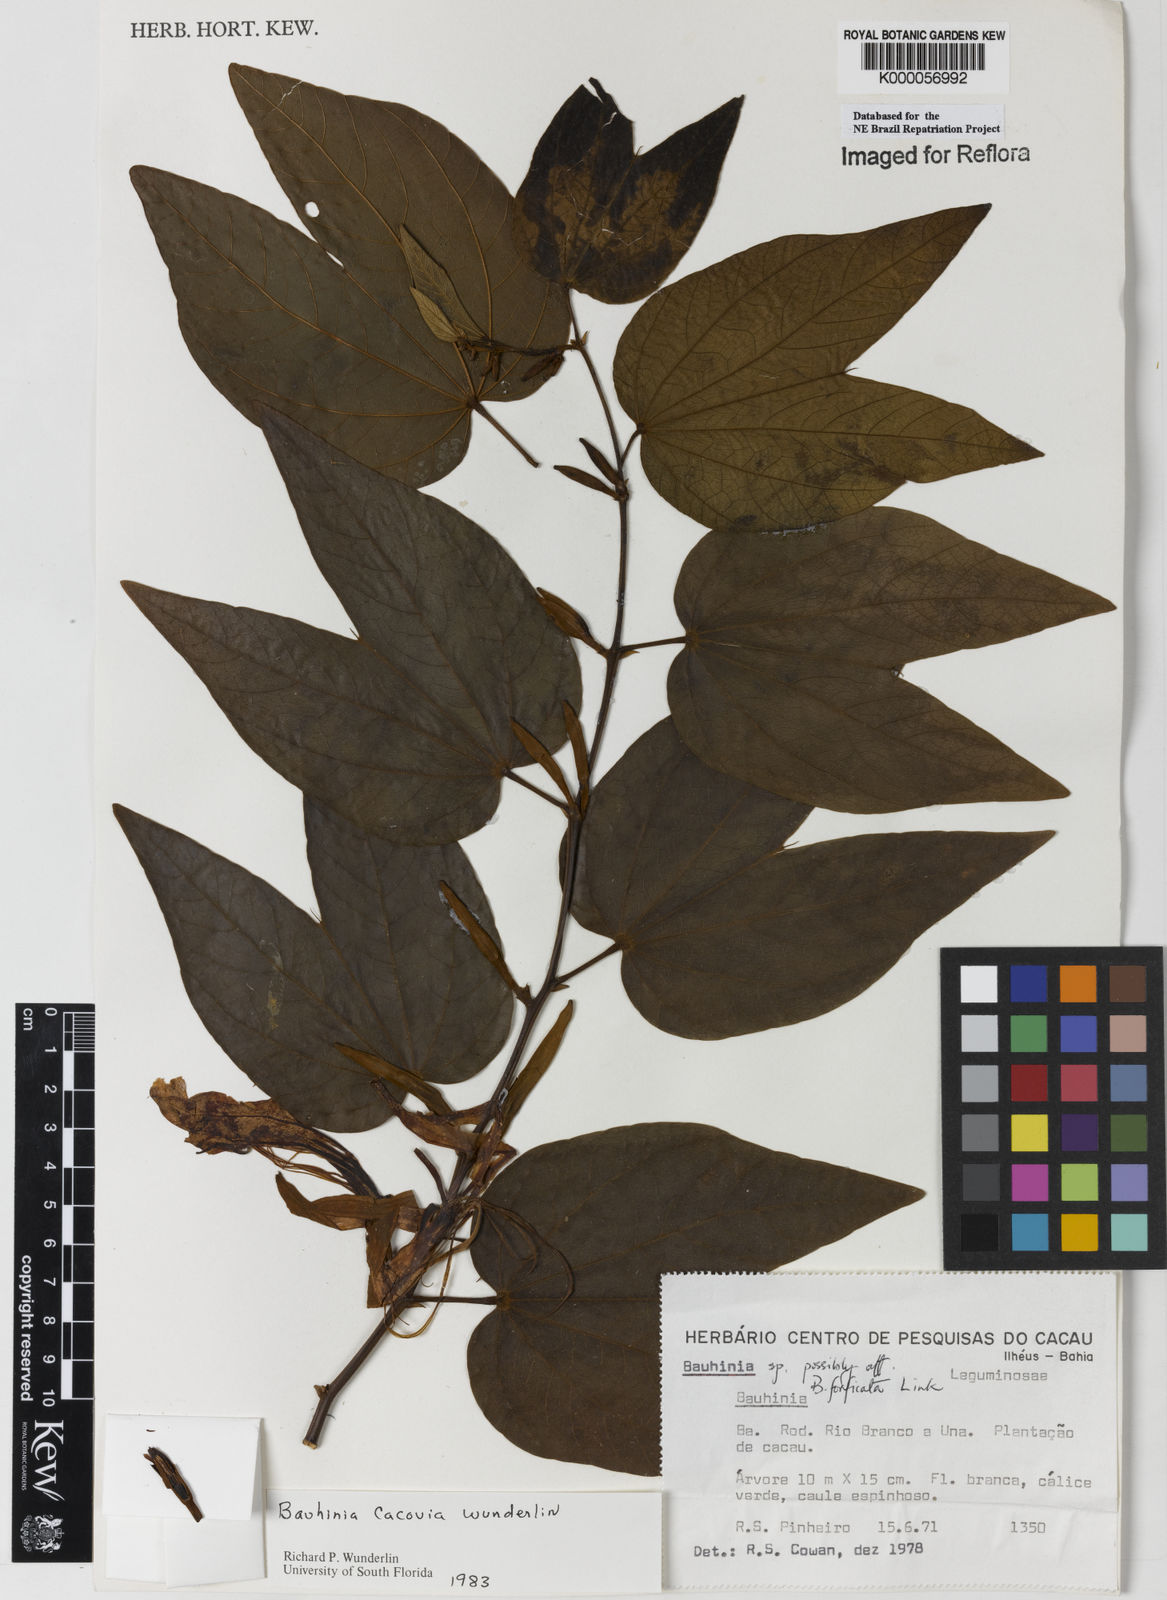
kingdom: Plantae
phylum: Tracheophyta
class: Magnoliopsida
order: Fabales
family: Fabaceae
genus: Bauhinia
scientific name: Bauhinia
